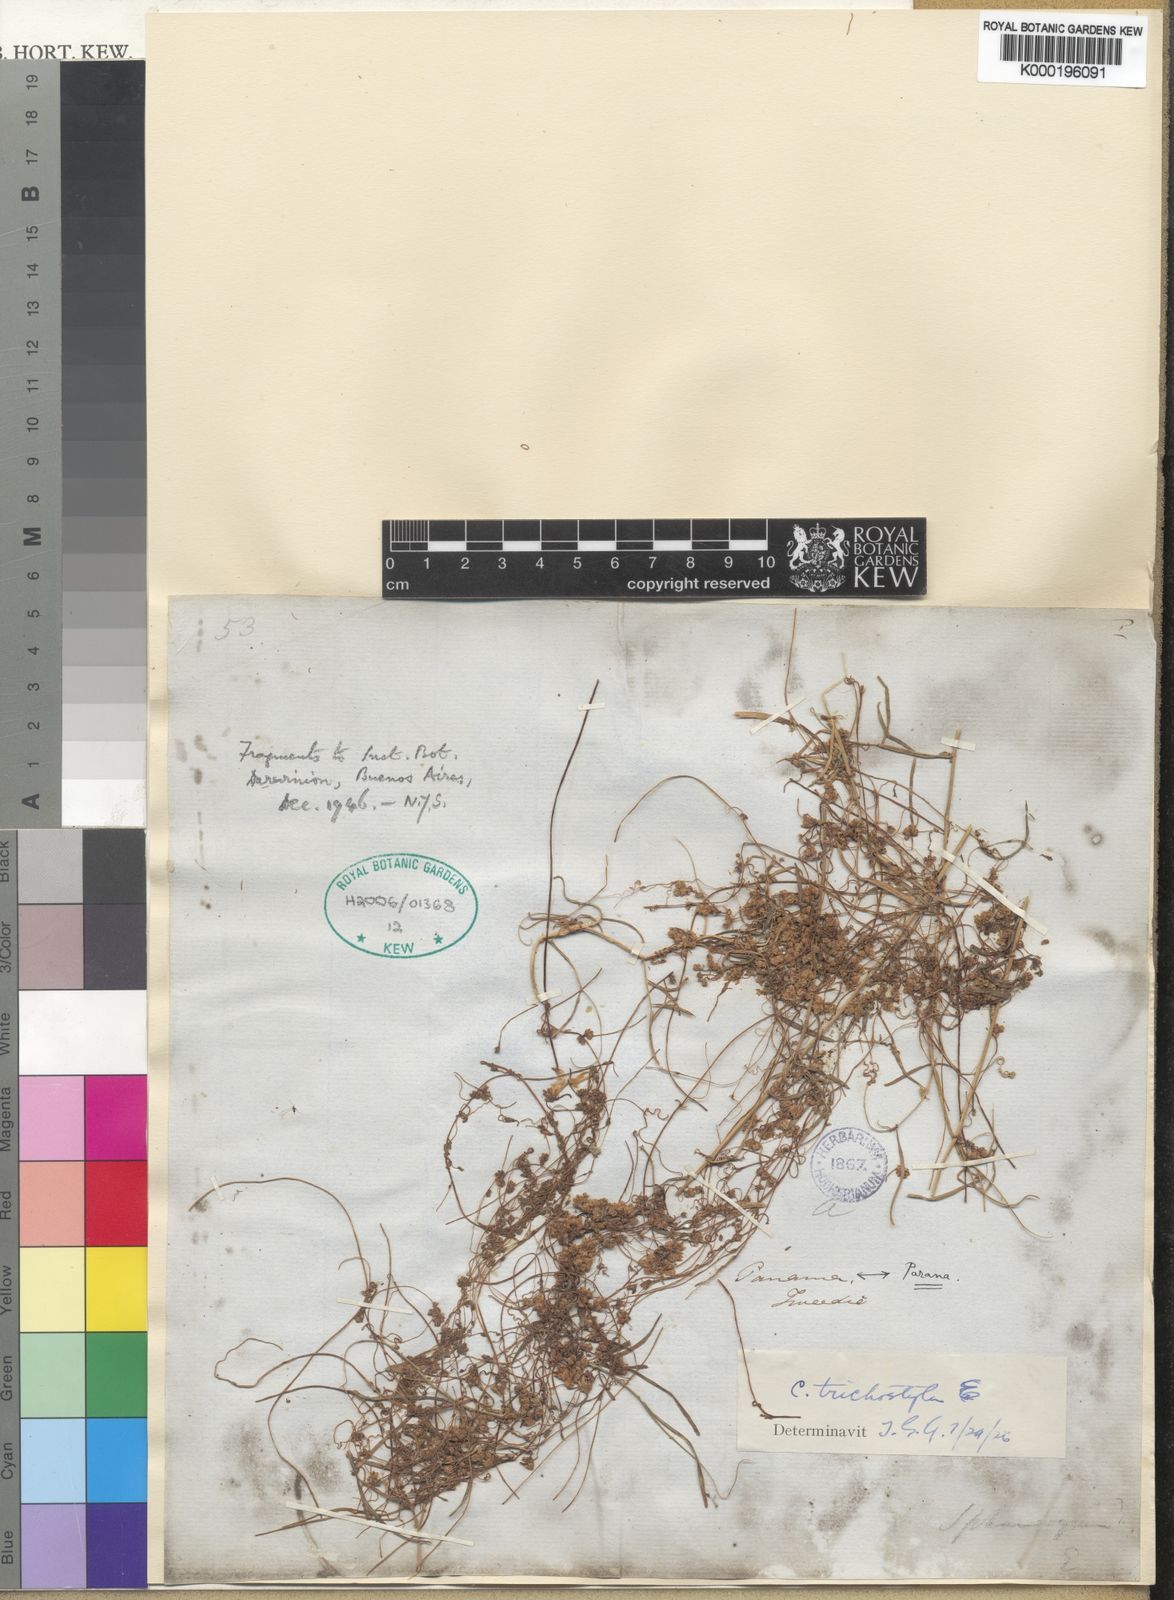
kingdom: Plantae
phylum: Tracheophyta
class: Magnoliopsida
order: Solanales
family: Convolvulaceae
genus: Cuscuta
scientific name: Cuscuta xanthochortos
